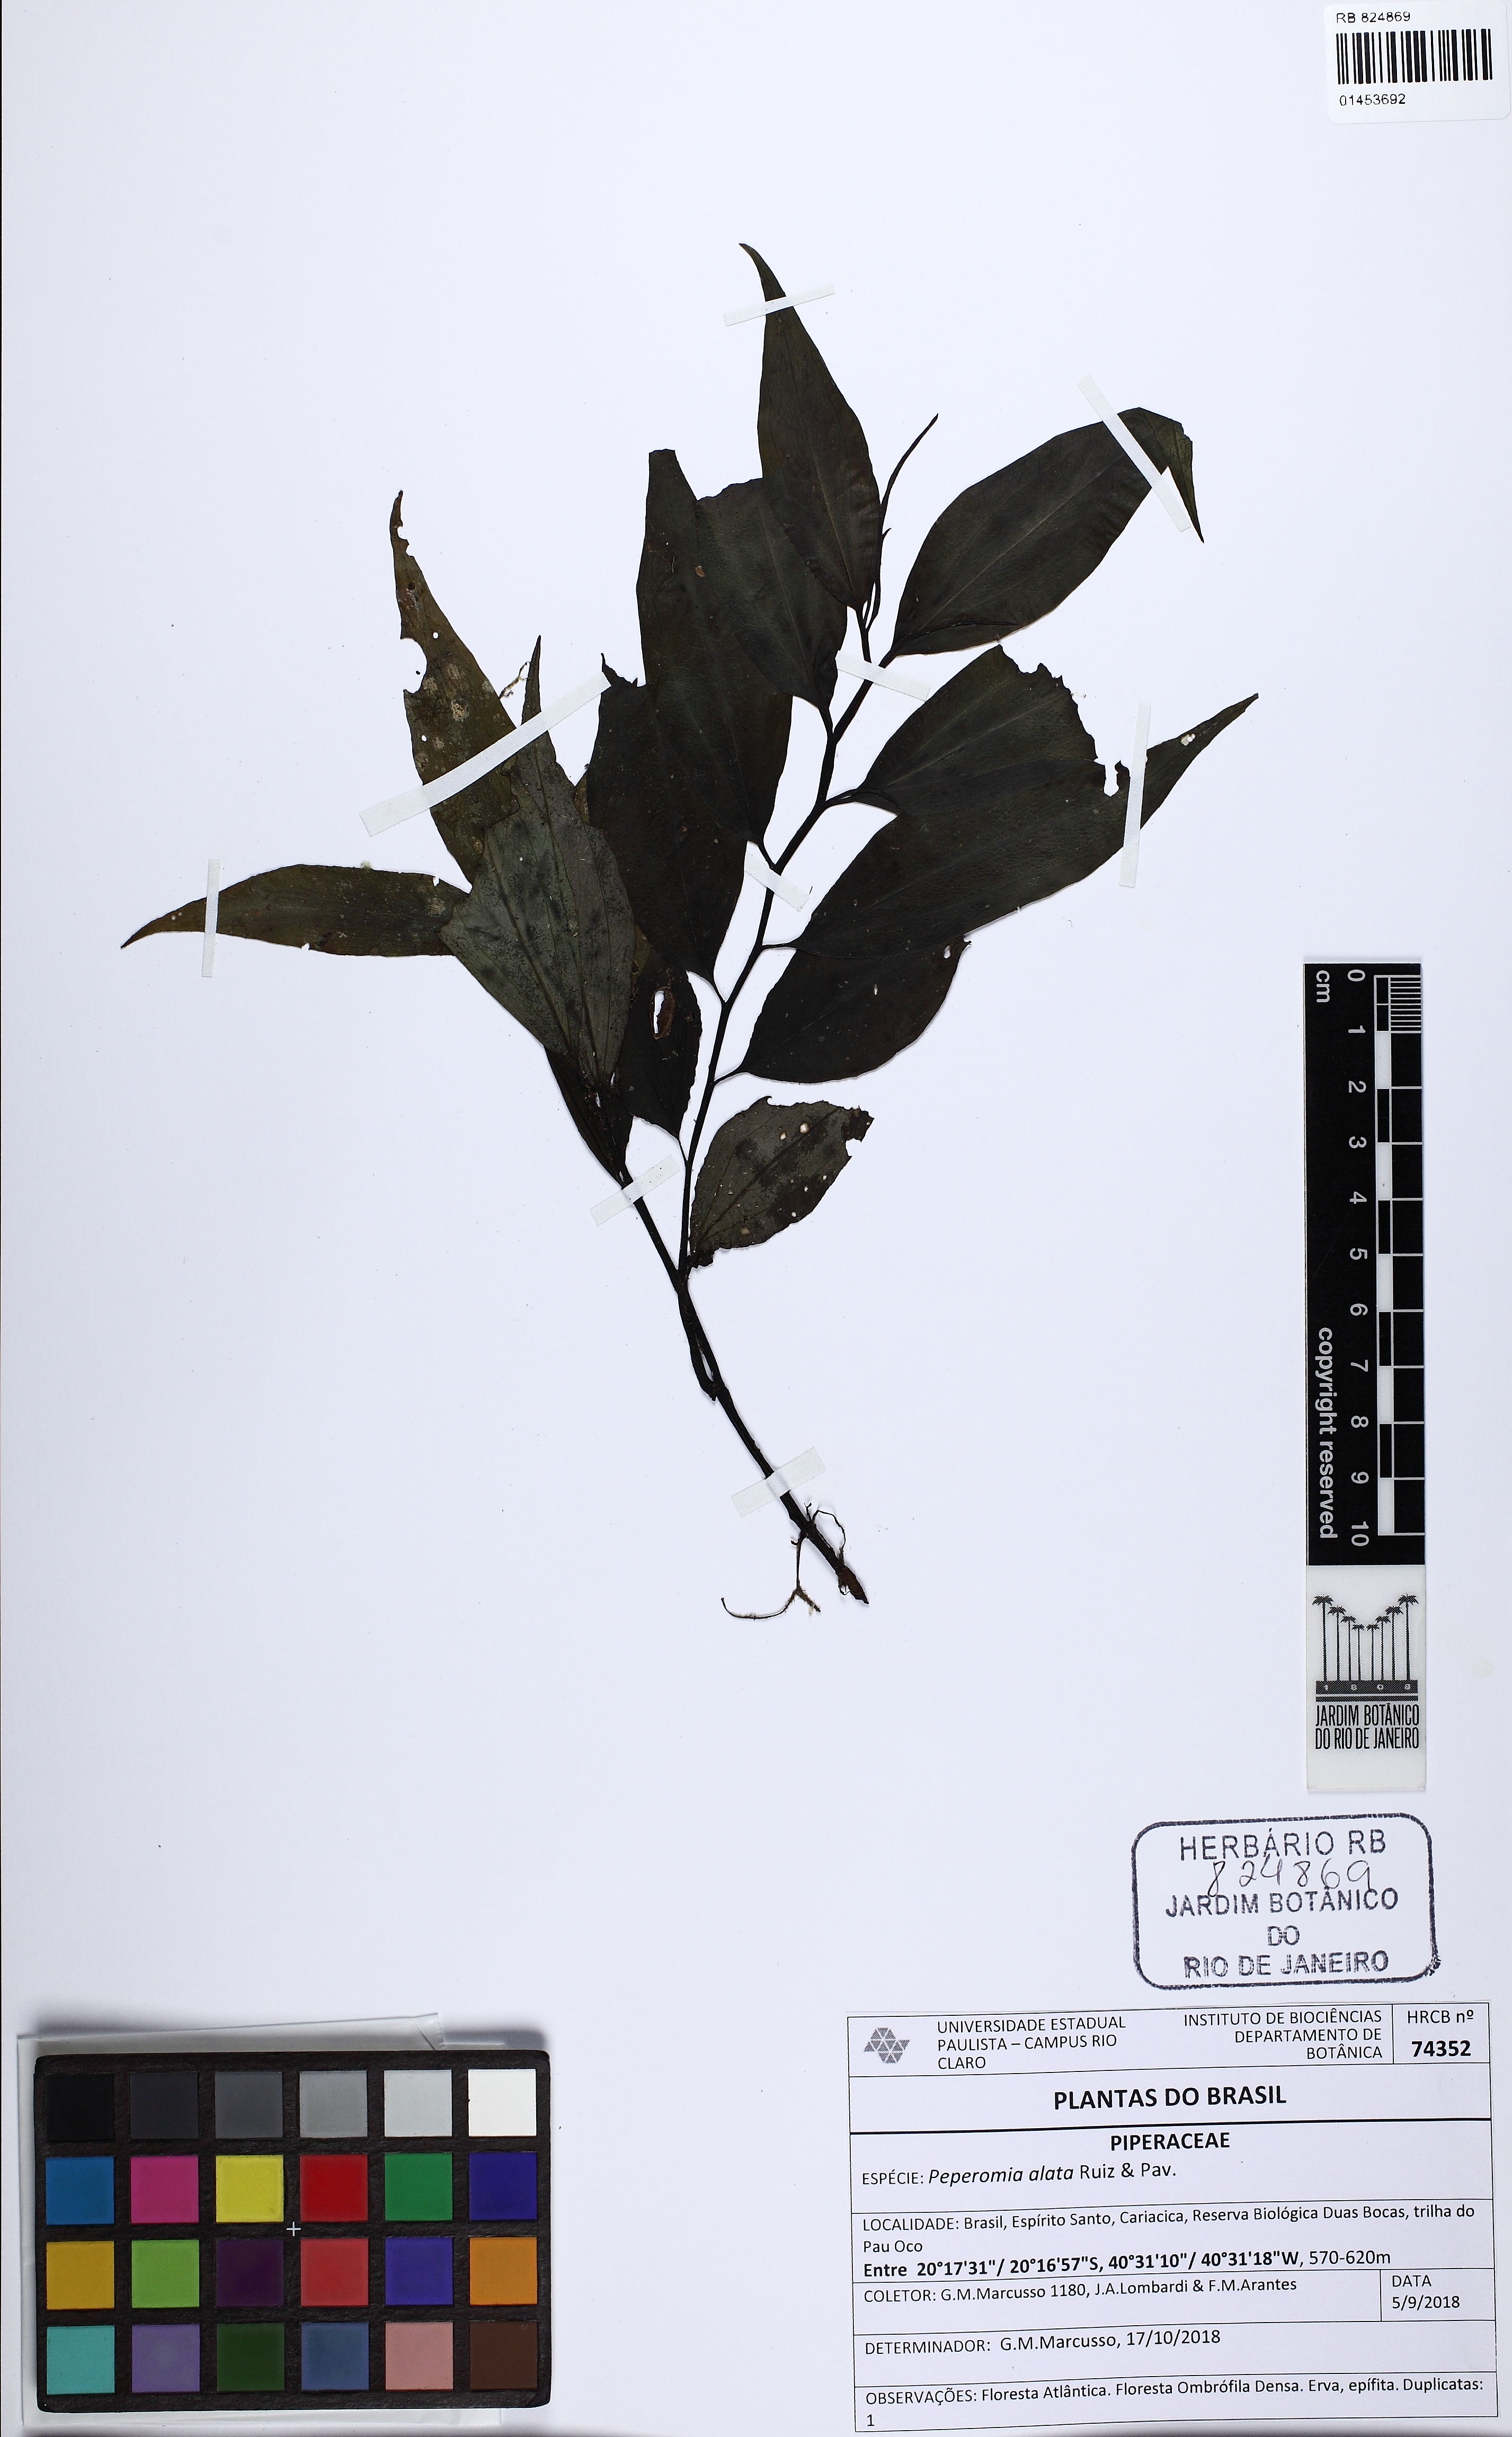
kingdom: Plantae
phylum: Tracheophyta
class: Magnoliopsida
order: Piperales
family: Piperaceae
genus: Peperomia
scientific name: Peperomia alata
